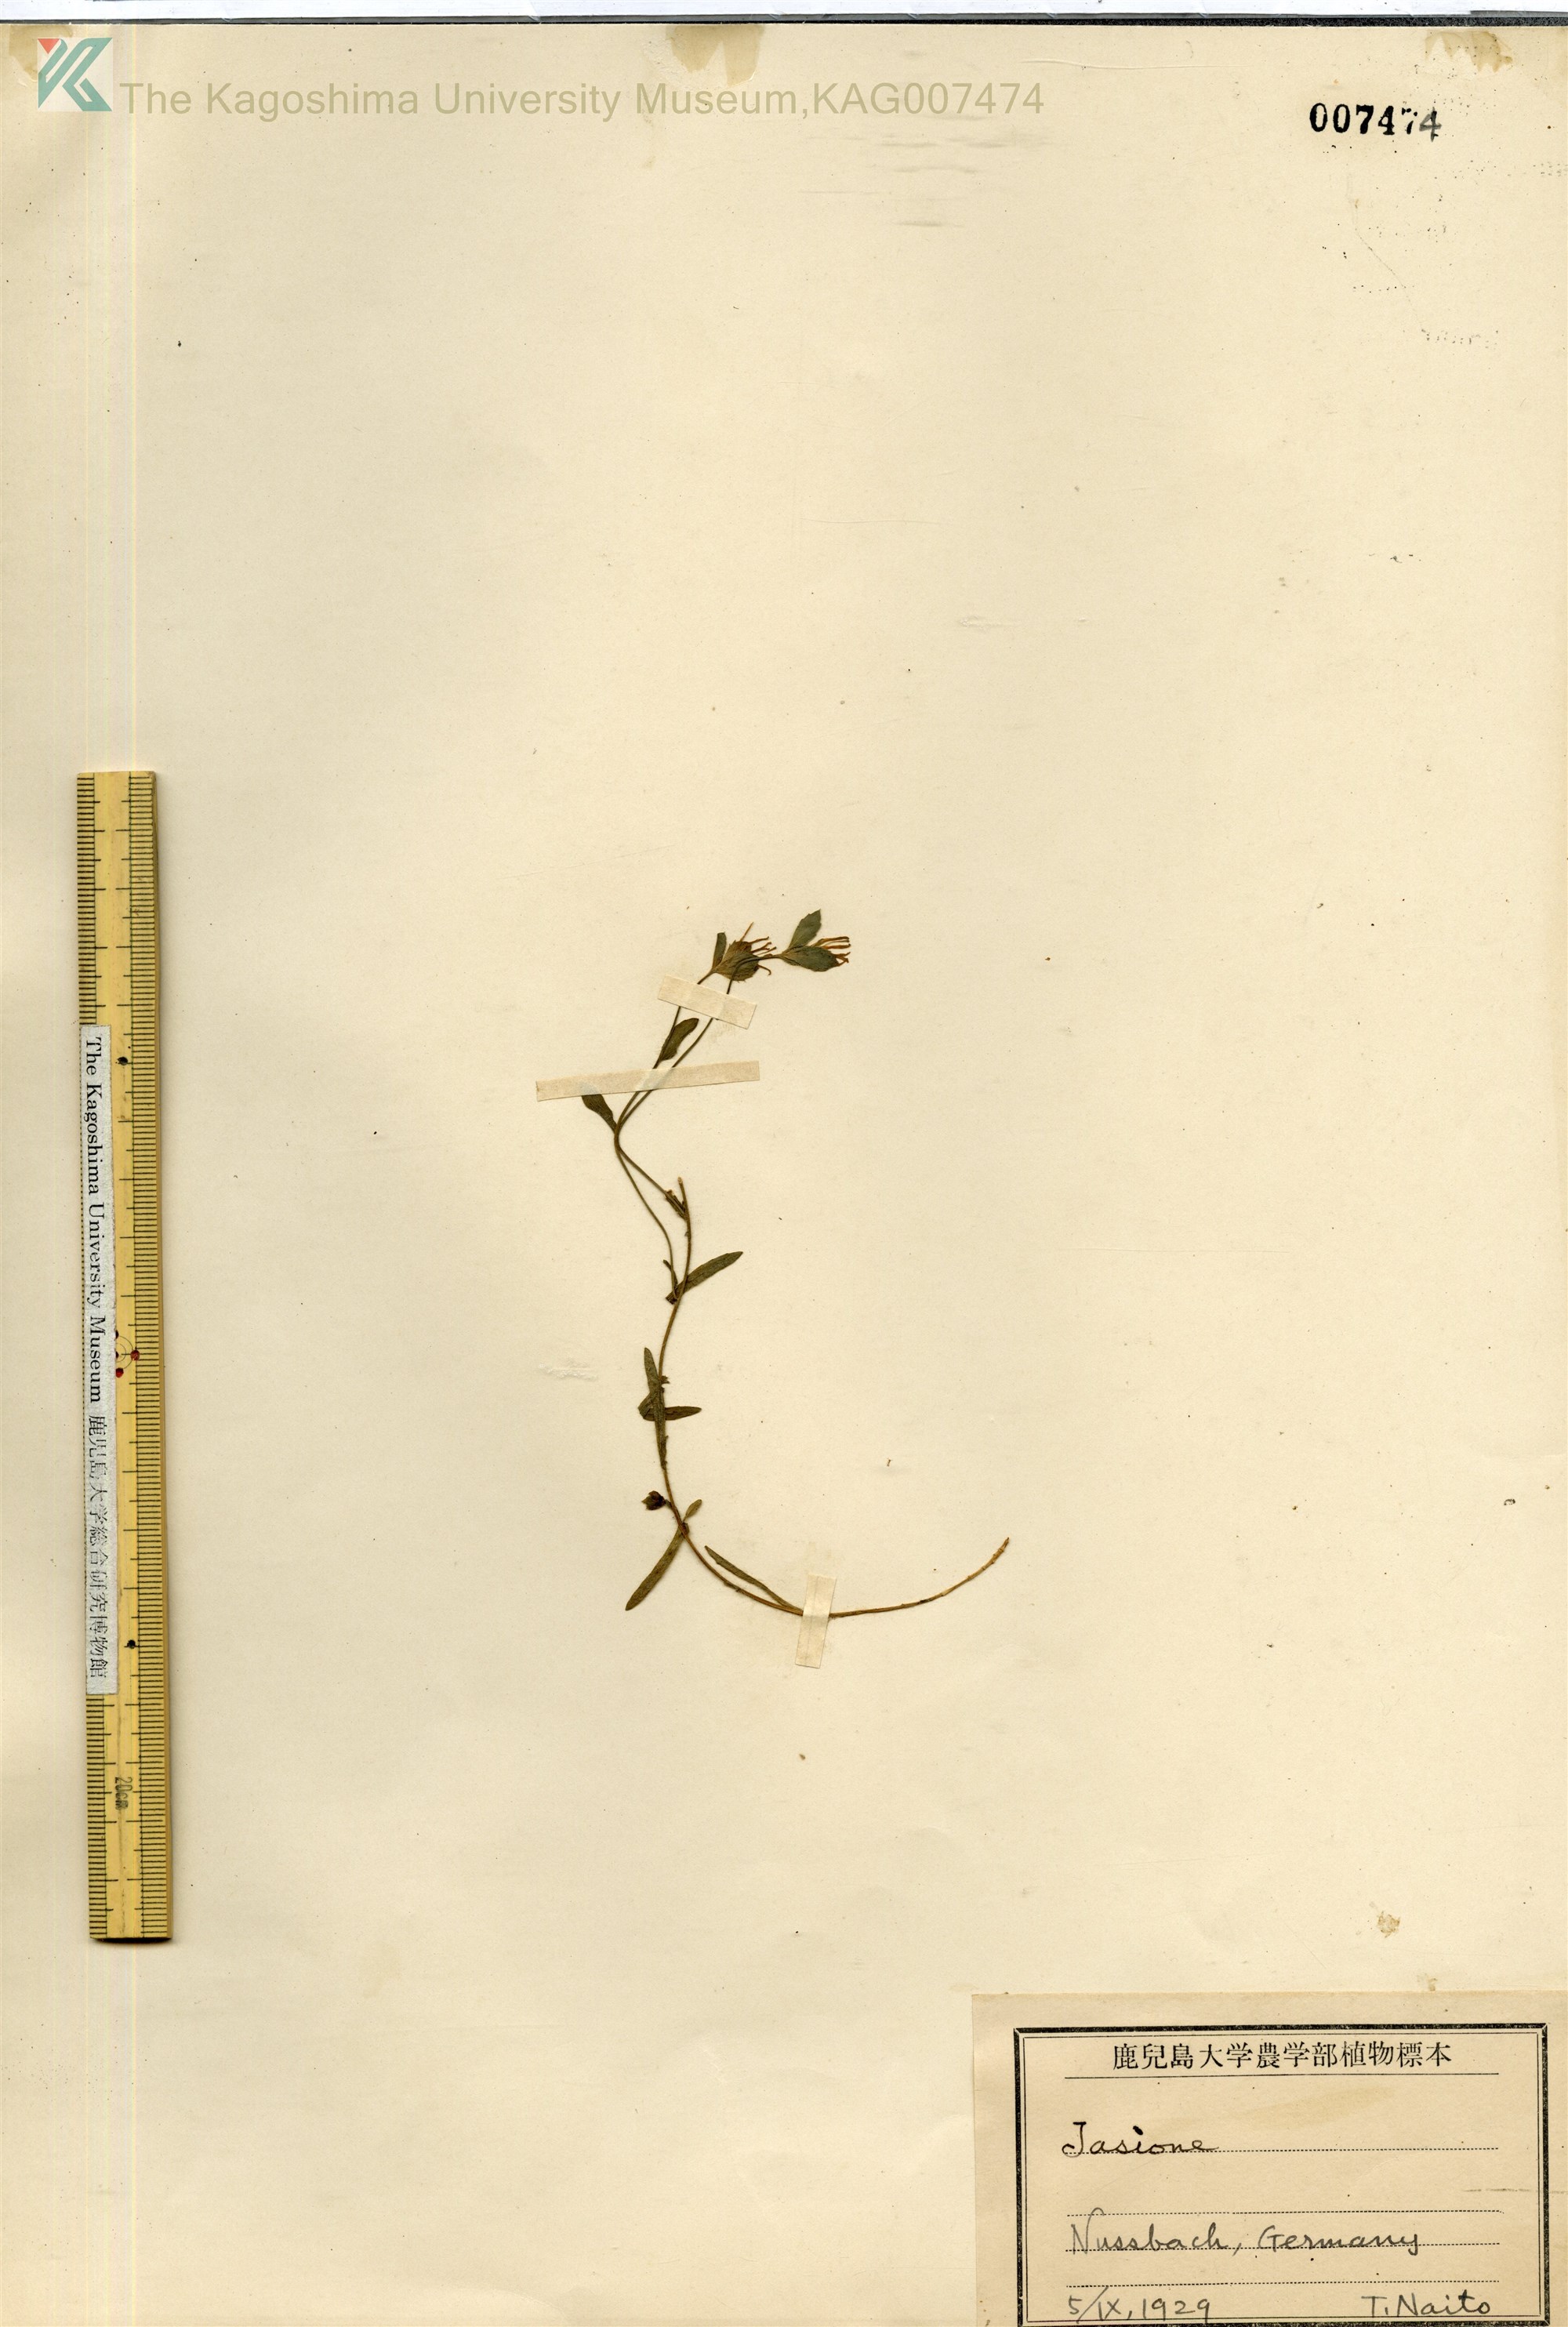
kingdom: Plantae
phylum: Tracheophyta
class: Magnoliopsida
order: Asterales
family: Campanulaceae
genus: Jasione
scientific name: Jasione
